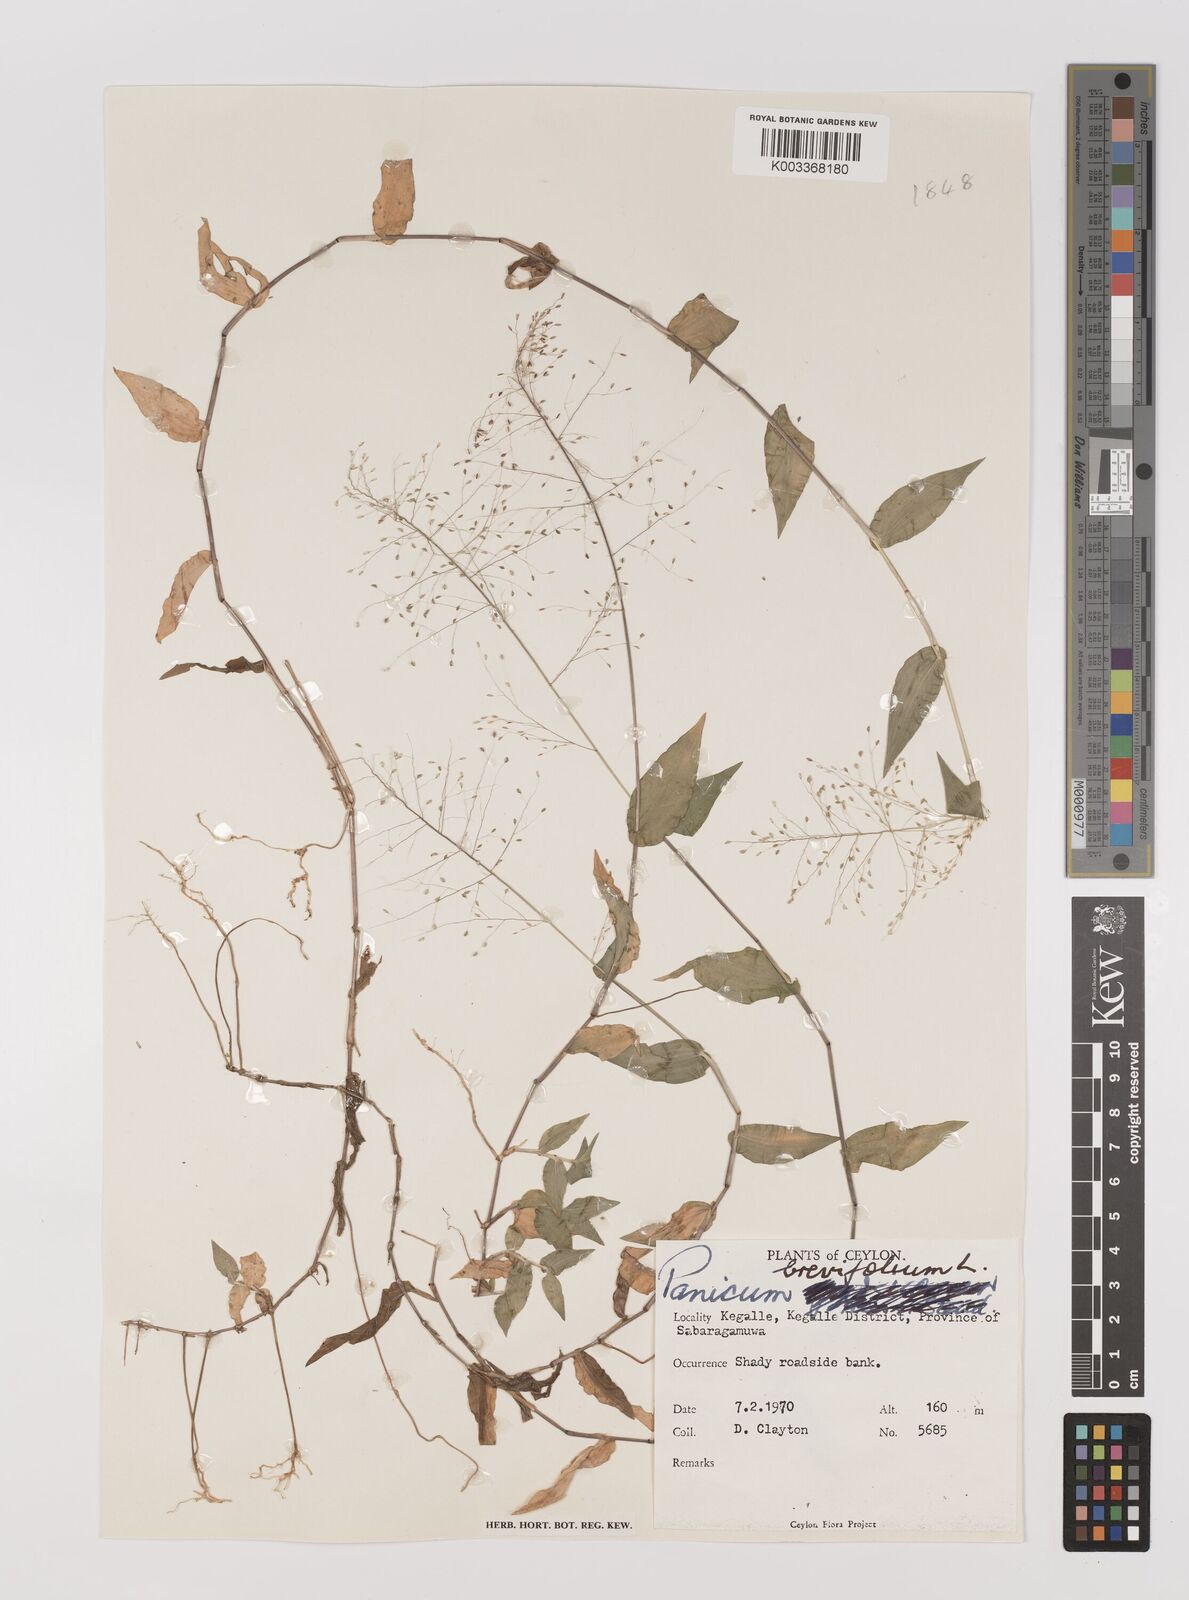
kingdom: Plantae
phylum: Tracheophyta
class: Liliopsida
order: Poales
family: Poaceae
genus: Panicum
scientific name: Panicum brevifolium
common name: Shortleaf panic grass
